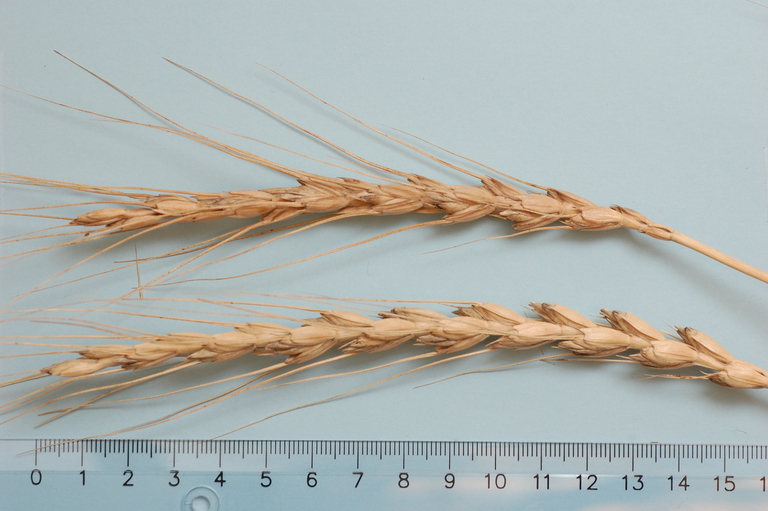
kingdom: Plantae
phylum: Tracheophyta
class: Liliopsida
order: Poales
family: Poaceae
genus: Triticum
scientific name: Triticum aestivum
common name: Common wheat
